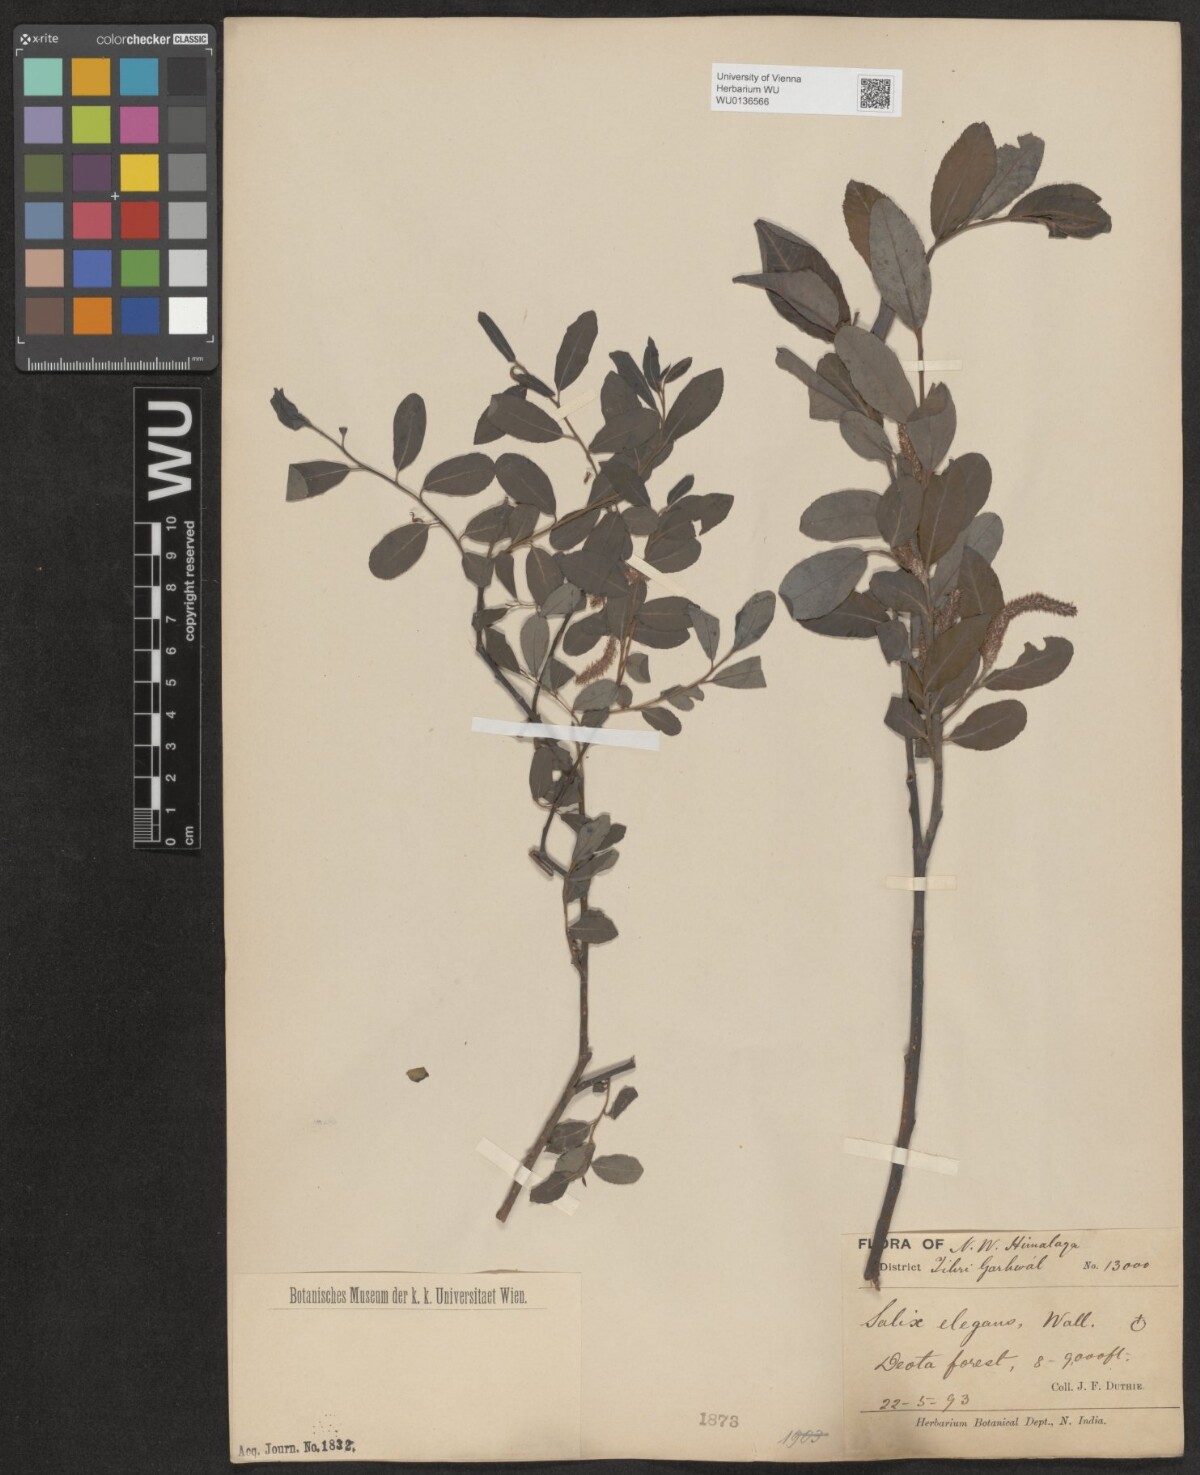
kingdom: Plantae
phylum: Tracheophyta
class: Magnoliopsida
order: Malpighiales
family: Salicaceae
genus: Salix
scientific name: Salix hastata
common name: Halberd willow
